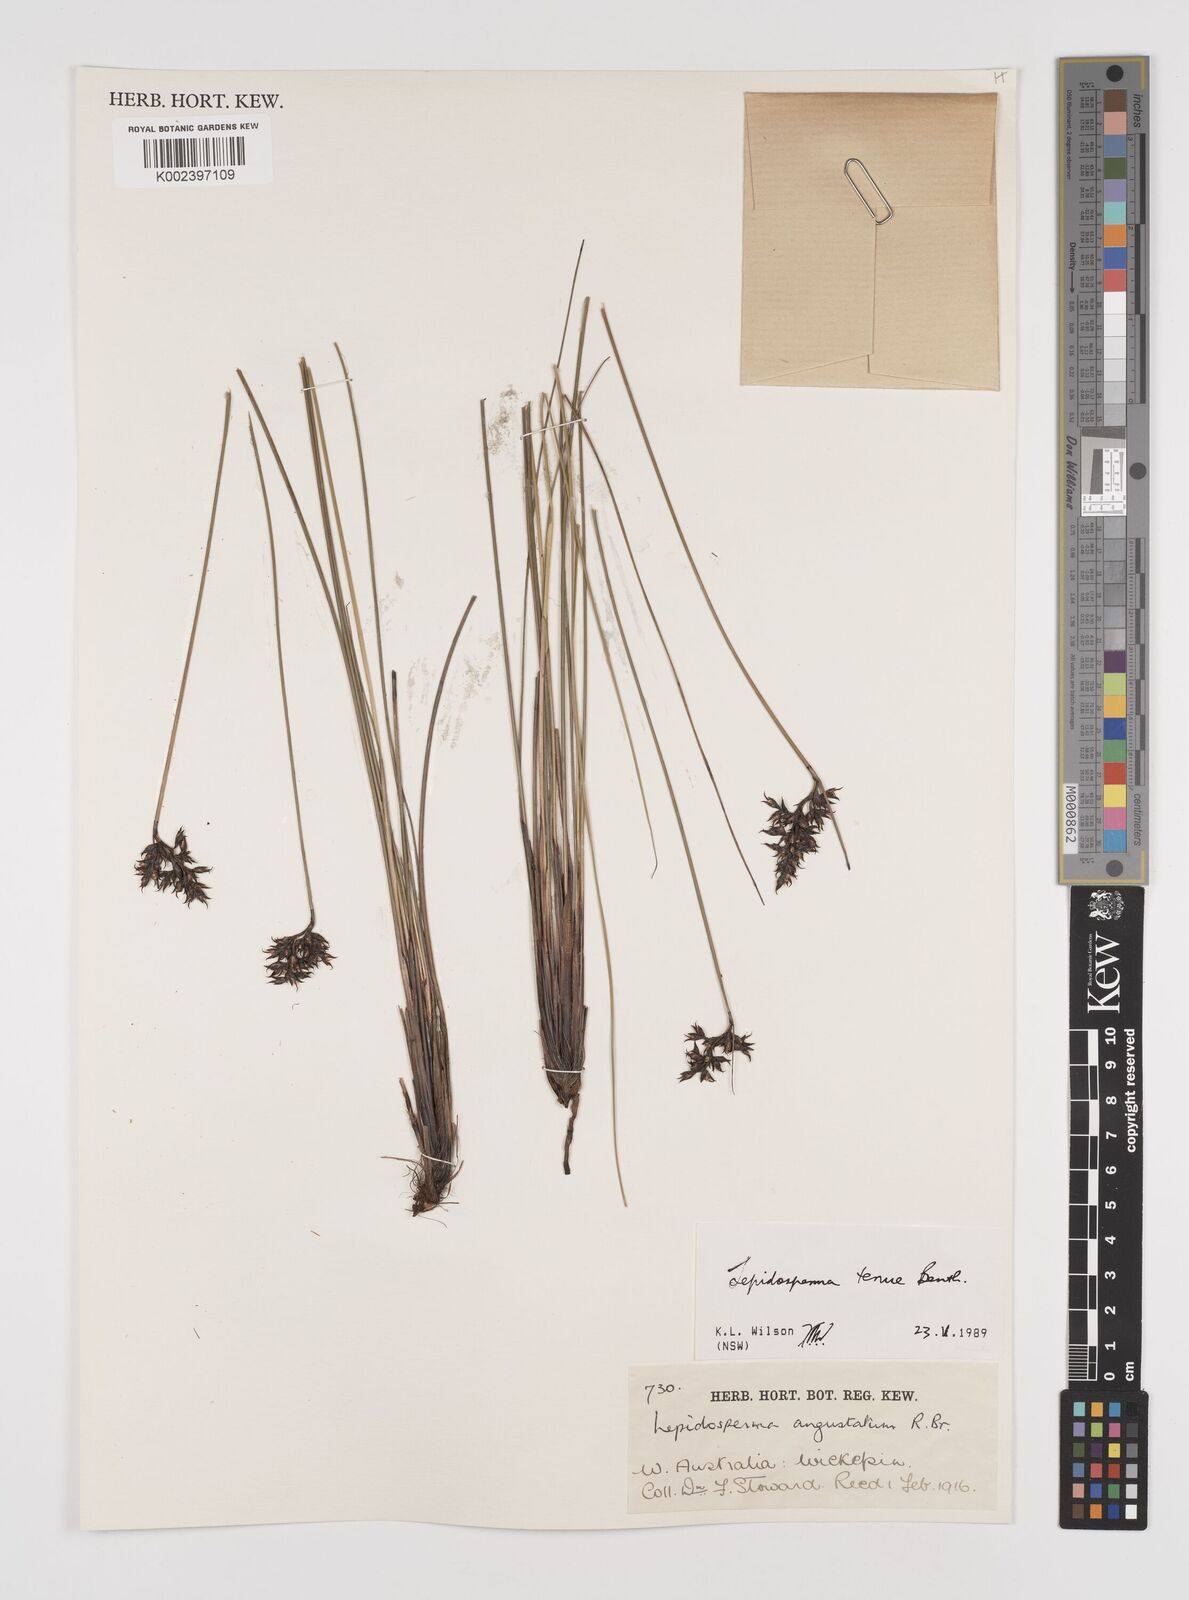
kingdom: Plantae
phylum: Tracheophyta
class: Liliopsida
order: Poales
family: Cyperaceae
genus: Lepidosperma
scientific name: Lepidosperma tenue
